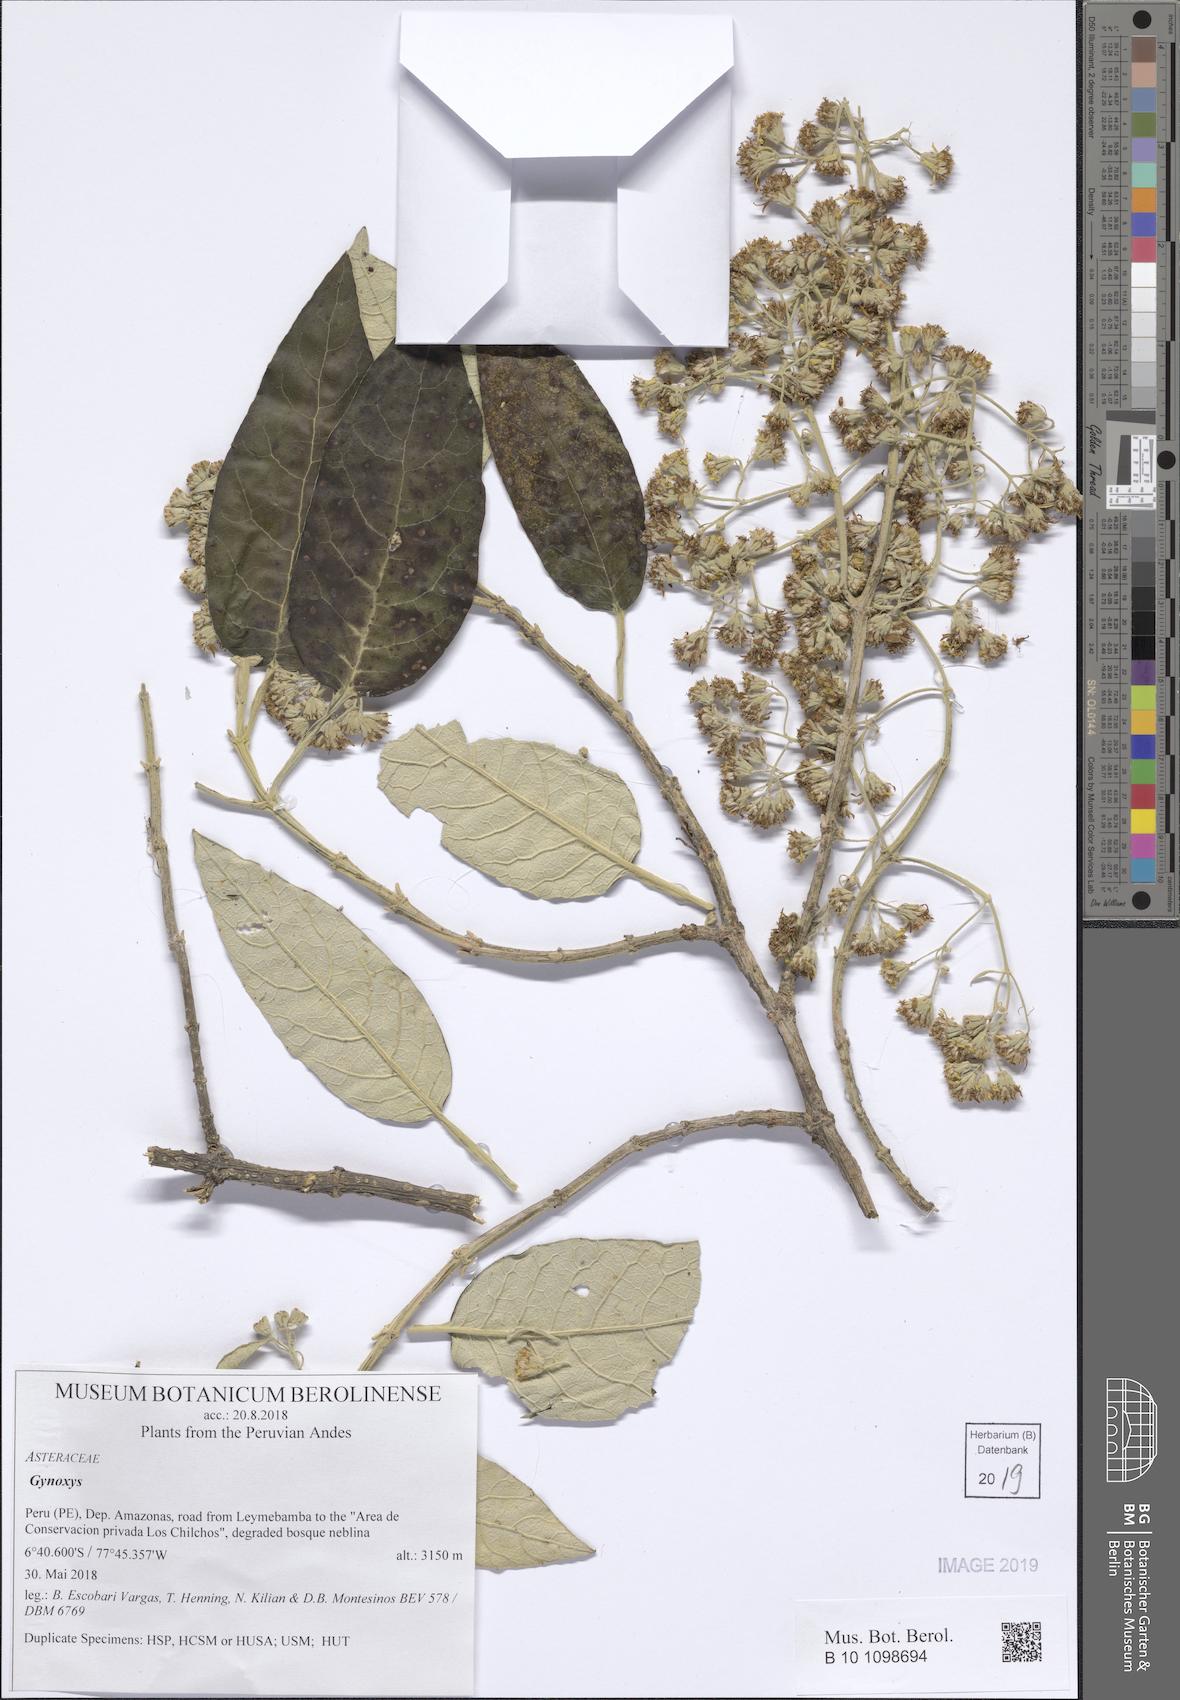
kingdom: Plantae
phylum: Tracheophyta
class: Magnoliopsida
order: Asterales
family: Asteraceae
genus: Gynoxys
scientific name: Gynoxys
